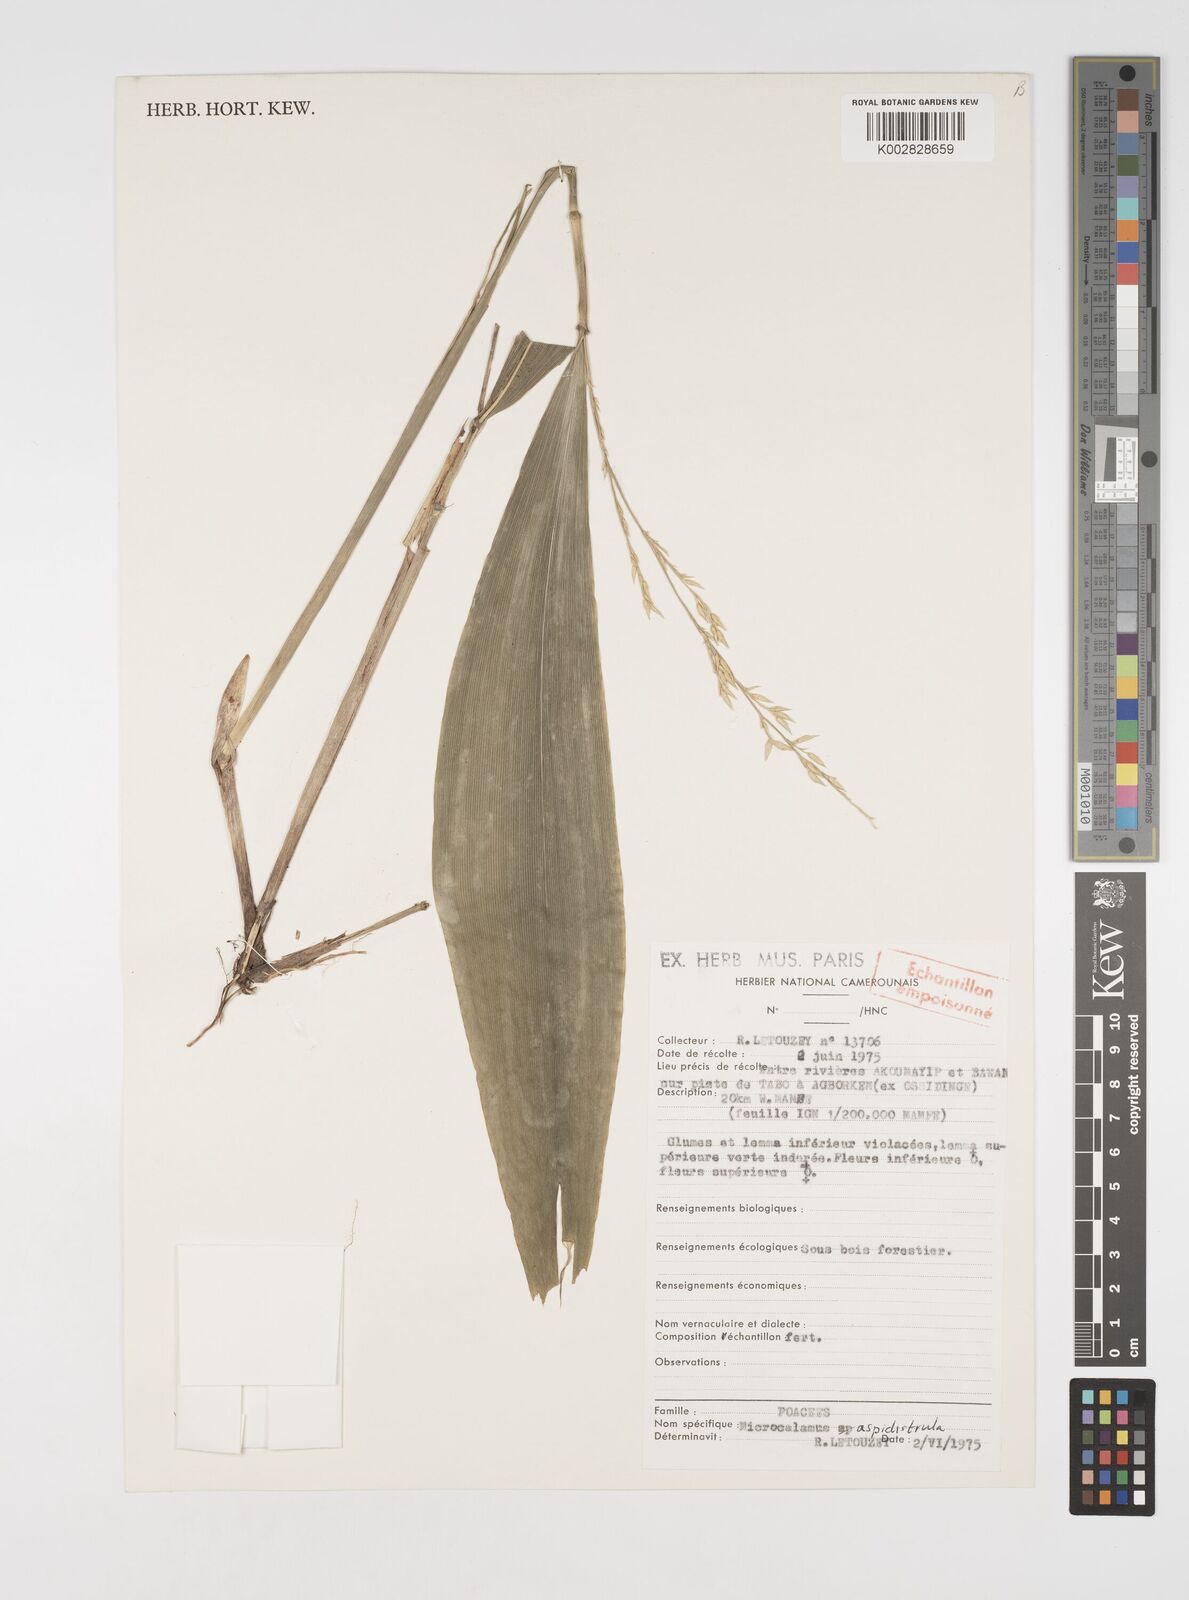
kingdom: Plantae
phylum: Tracheophyta
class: Liliopsida
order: Poales
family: Poaceae
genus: Microcalamus
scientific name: Microcalamus barbinodis
